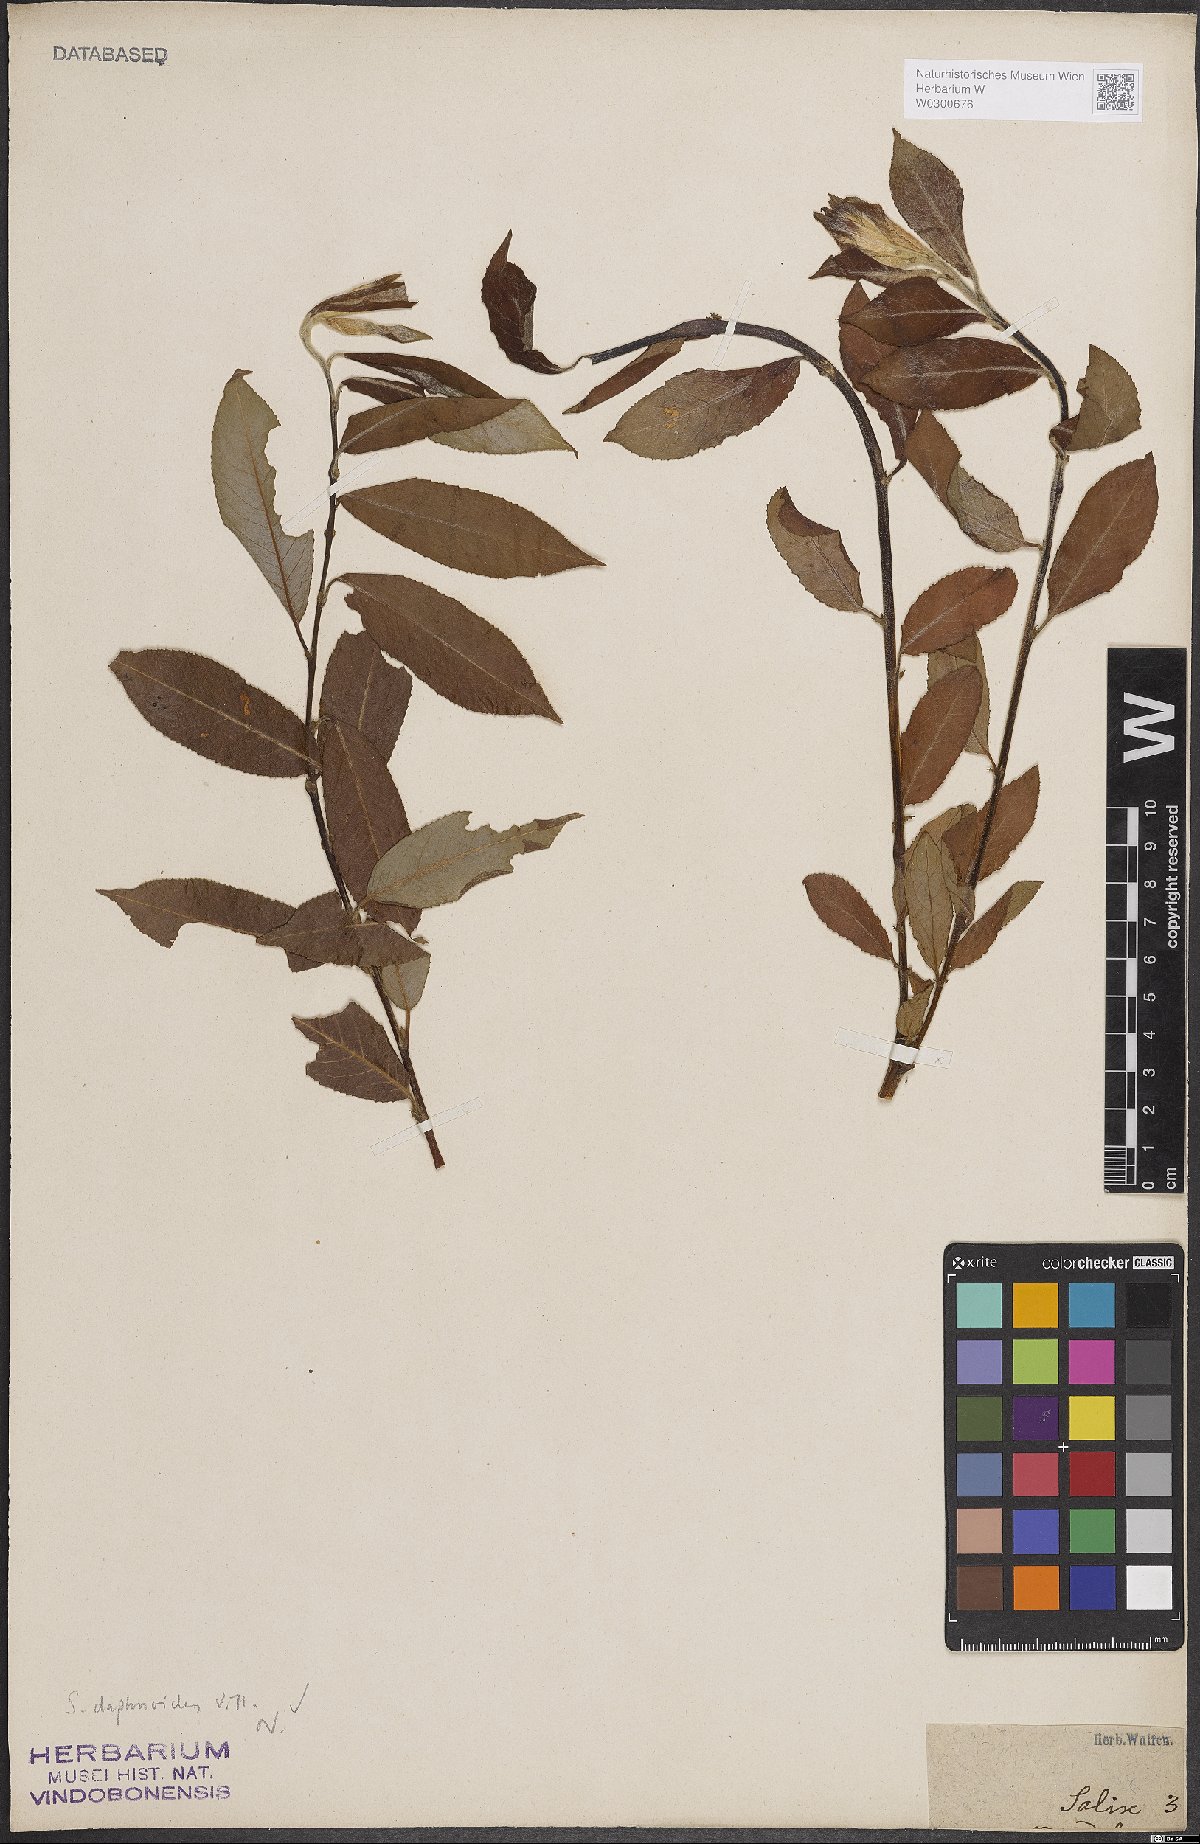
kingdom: Plantae
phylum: Tracheophyta
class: Magnoliopsida
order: Malpighiales
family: Salicaceae
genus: Salix
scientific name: Salix daphnoides
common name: European violet-willow
